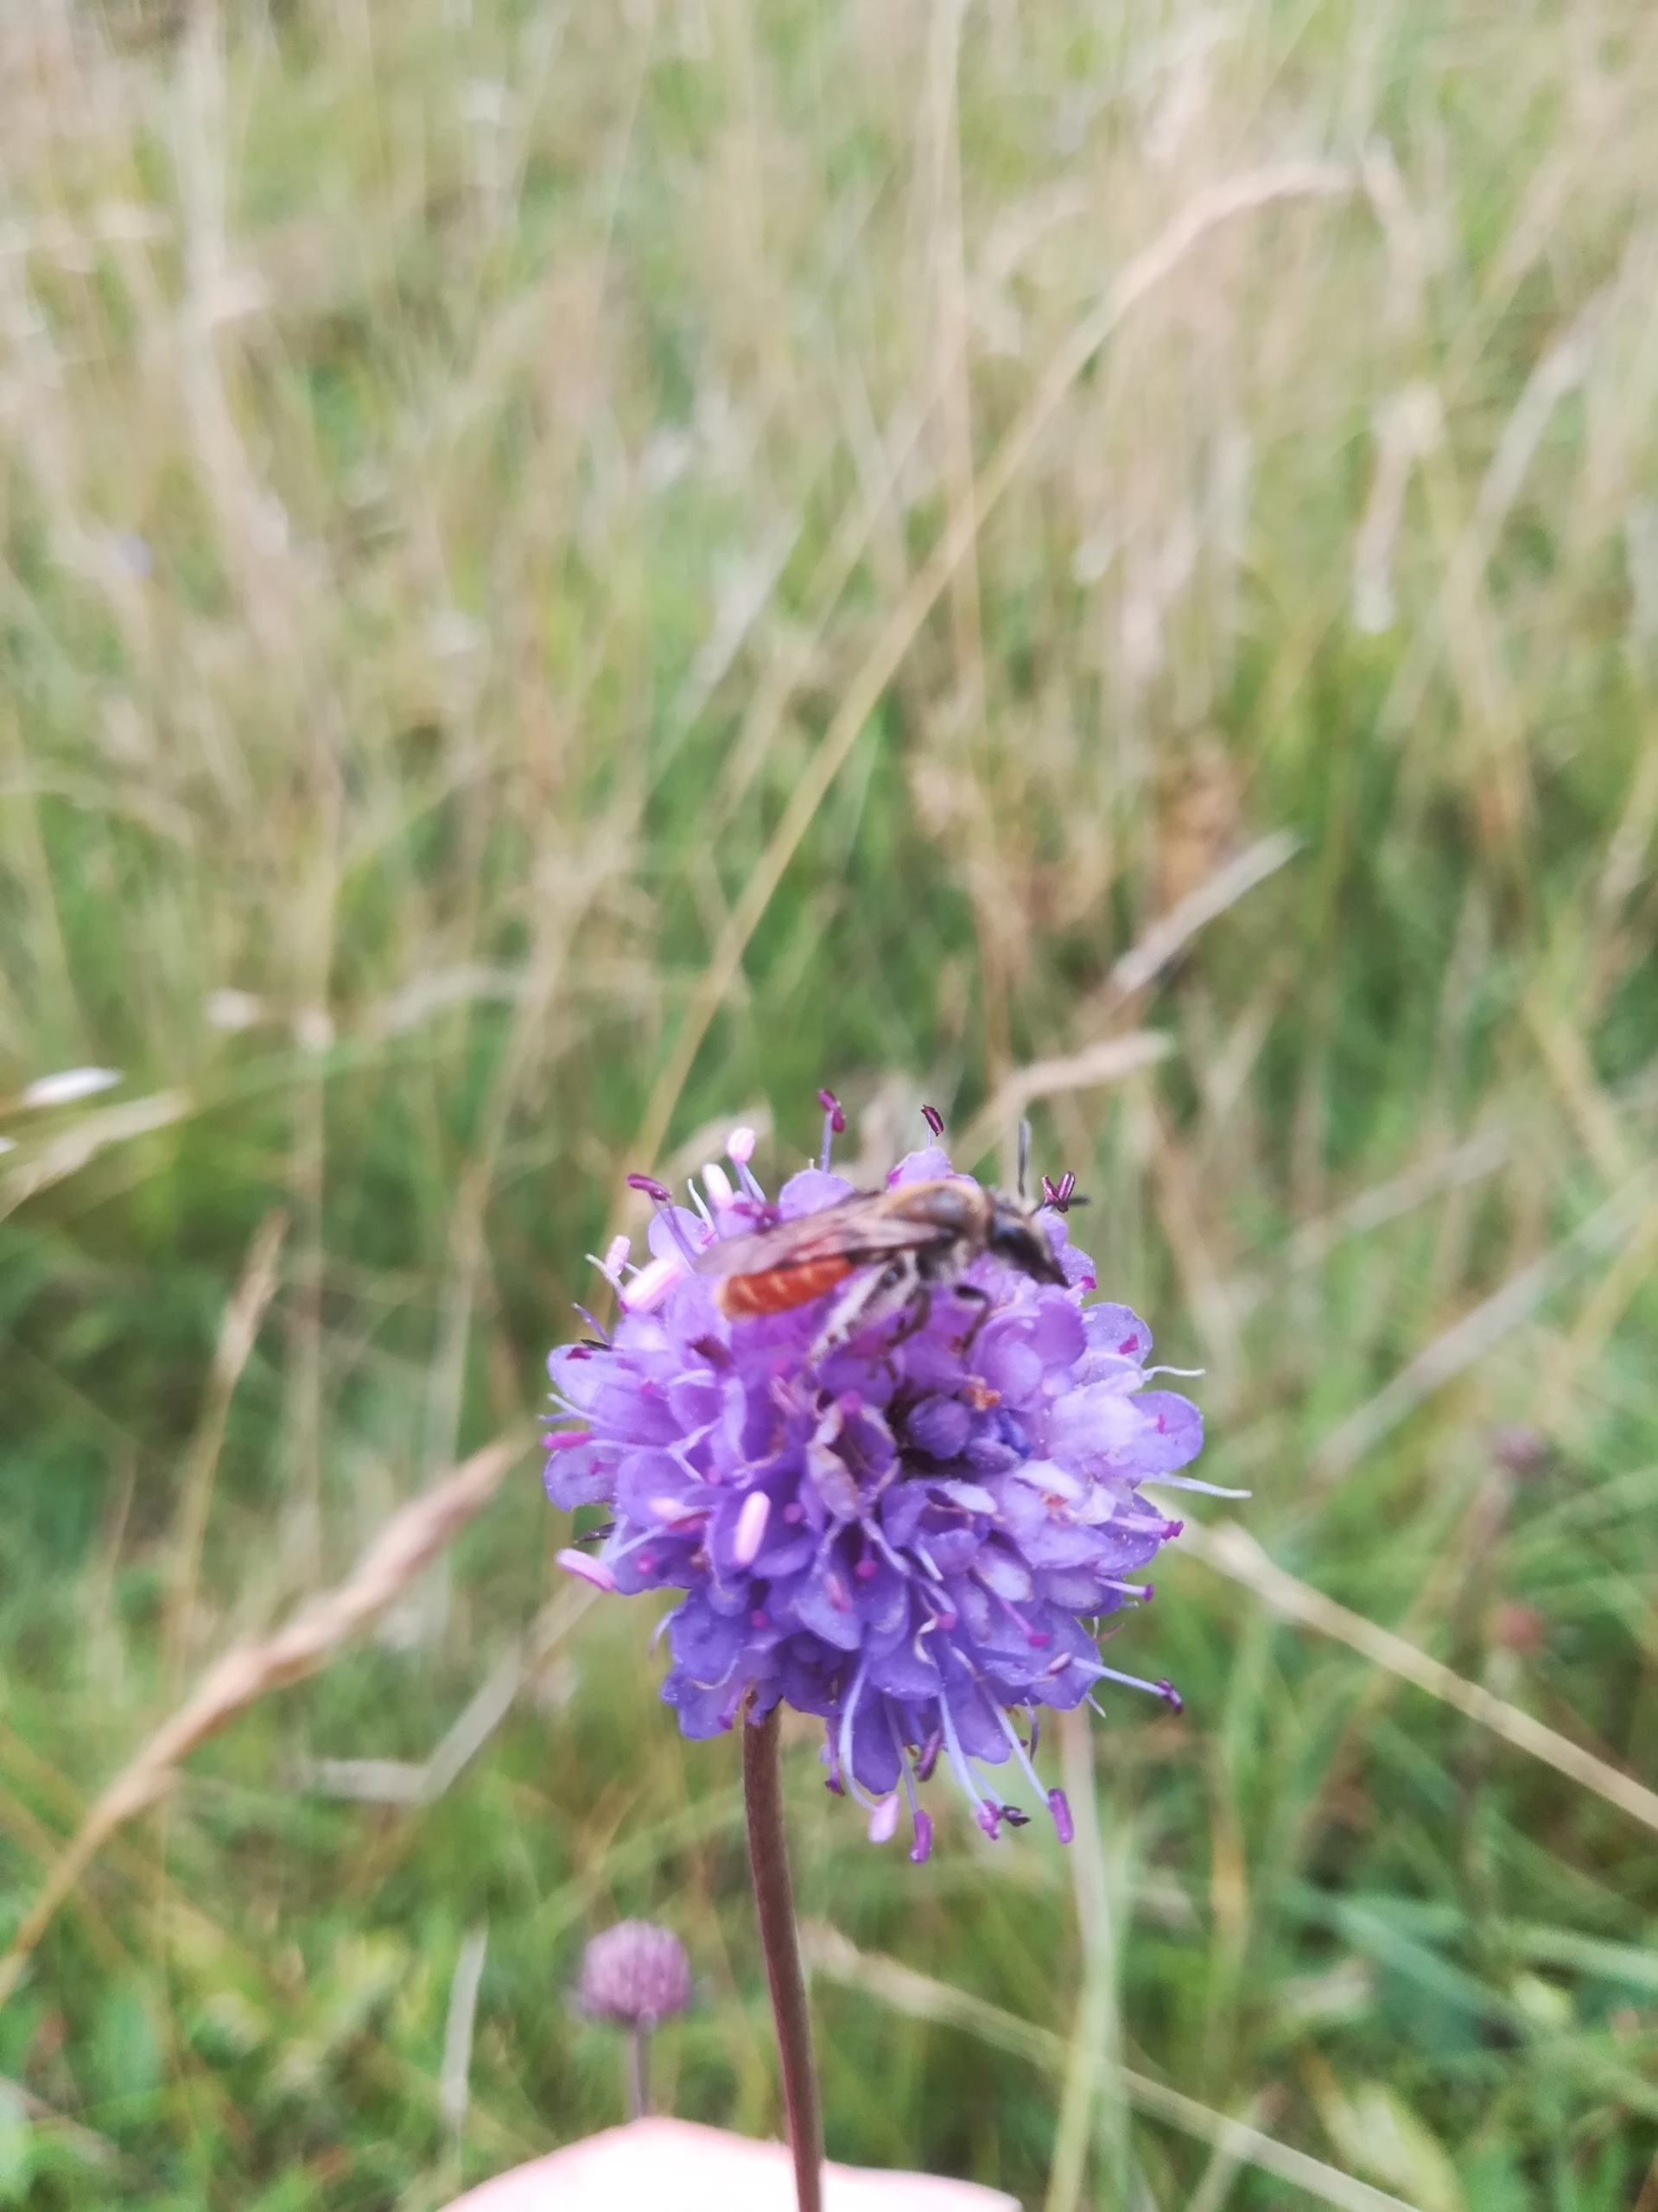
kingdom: Animalia
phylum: Arthropoda
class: Insecta
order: Hymenoptera
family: Andrenidae
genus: Andrena
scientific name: Andrena marginata
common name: Orange jordbi
